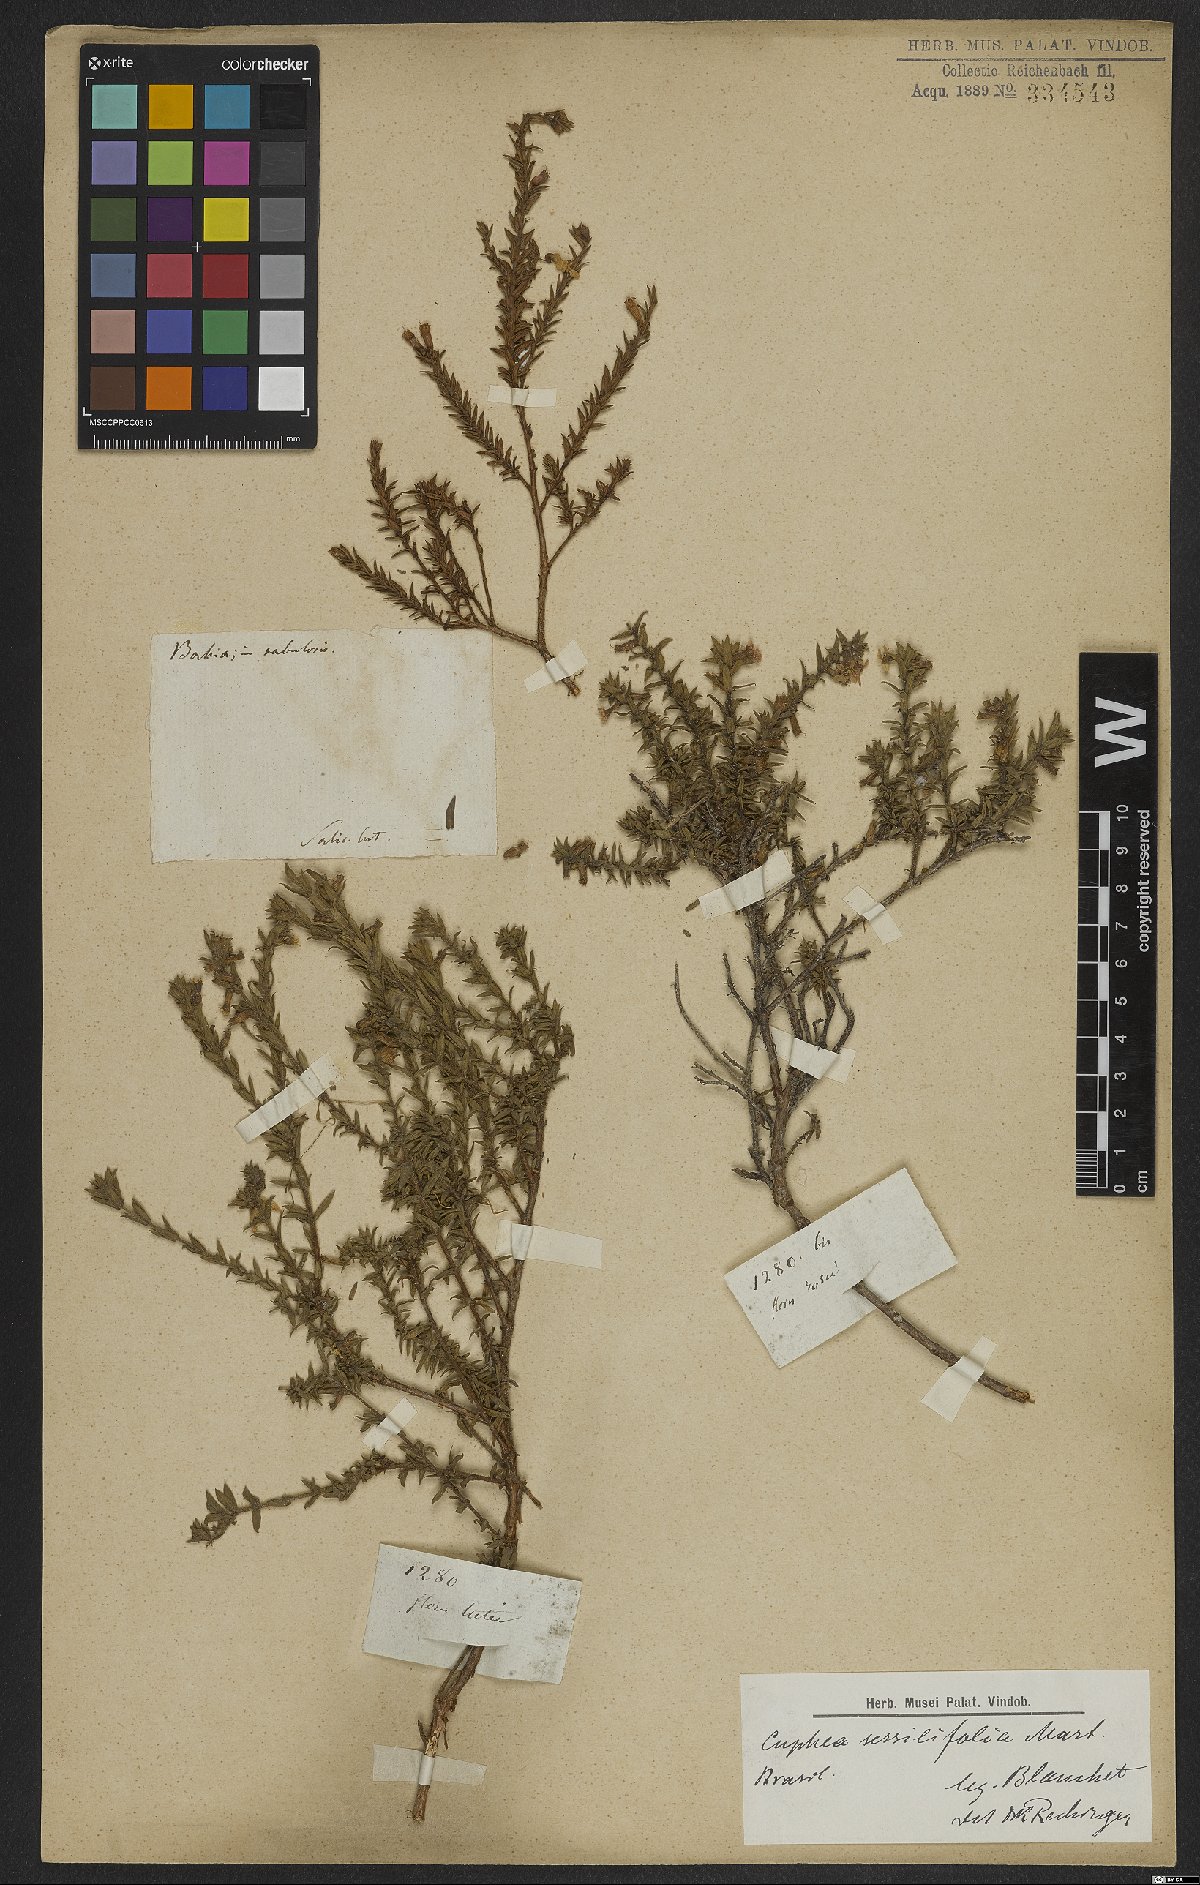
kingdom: Plantae
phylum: Tracheophyta
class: Magnoliopsida
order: Myrtales
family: Lythraceae
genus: Cuphea
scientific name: Cuphea sessilifolia
